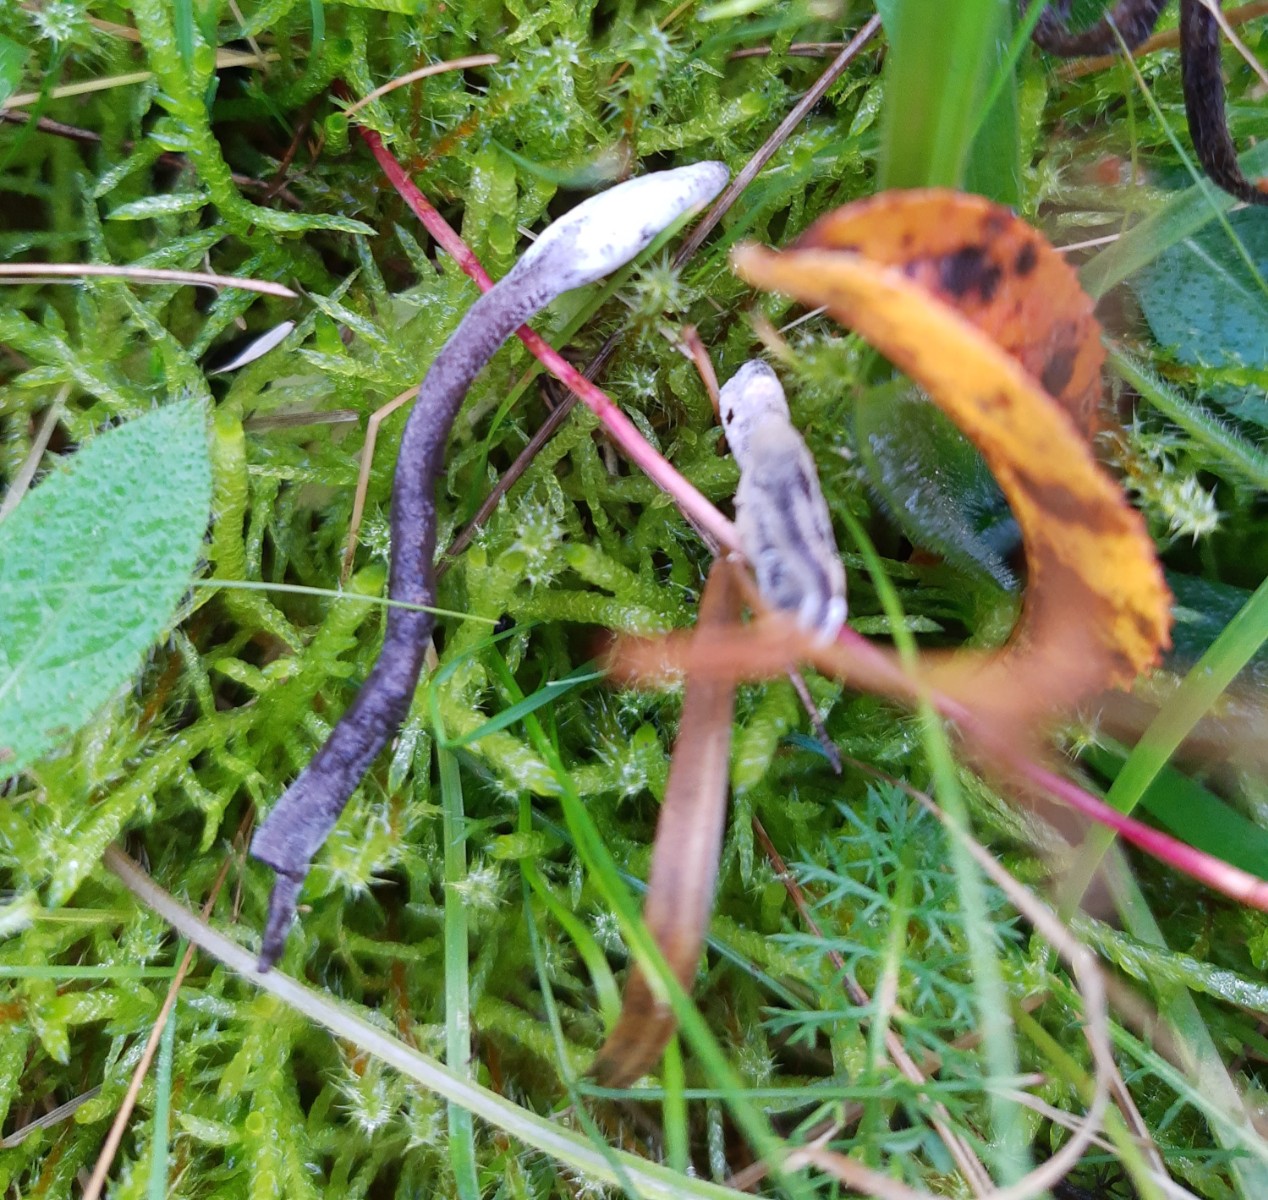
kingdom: Fungi
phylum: Ascomycota
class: Sordariomycetes
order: Hypocreales
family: Hypocreaceae
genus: Hypomyces
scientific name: Hypomyces papulasporae
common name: jordtunge-snylteskorpe
